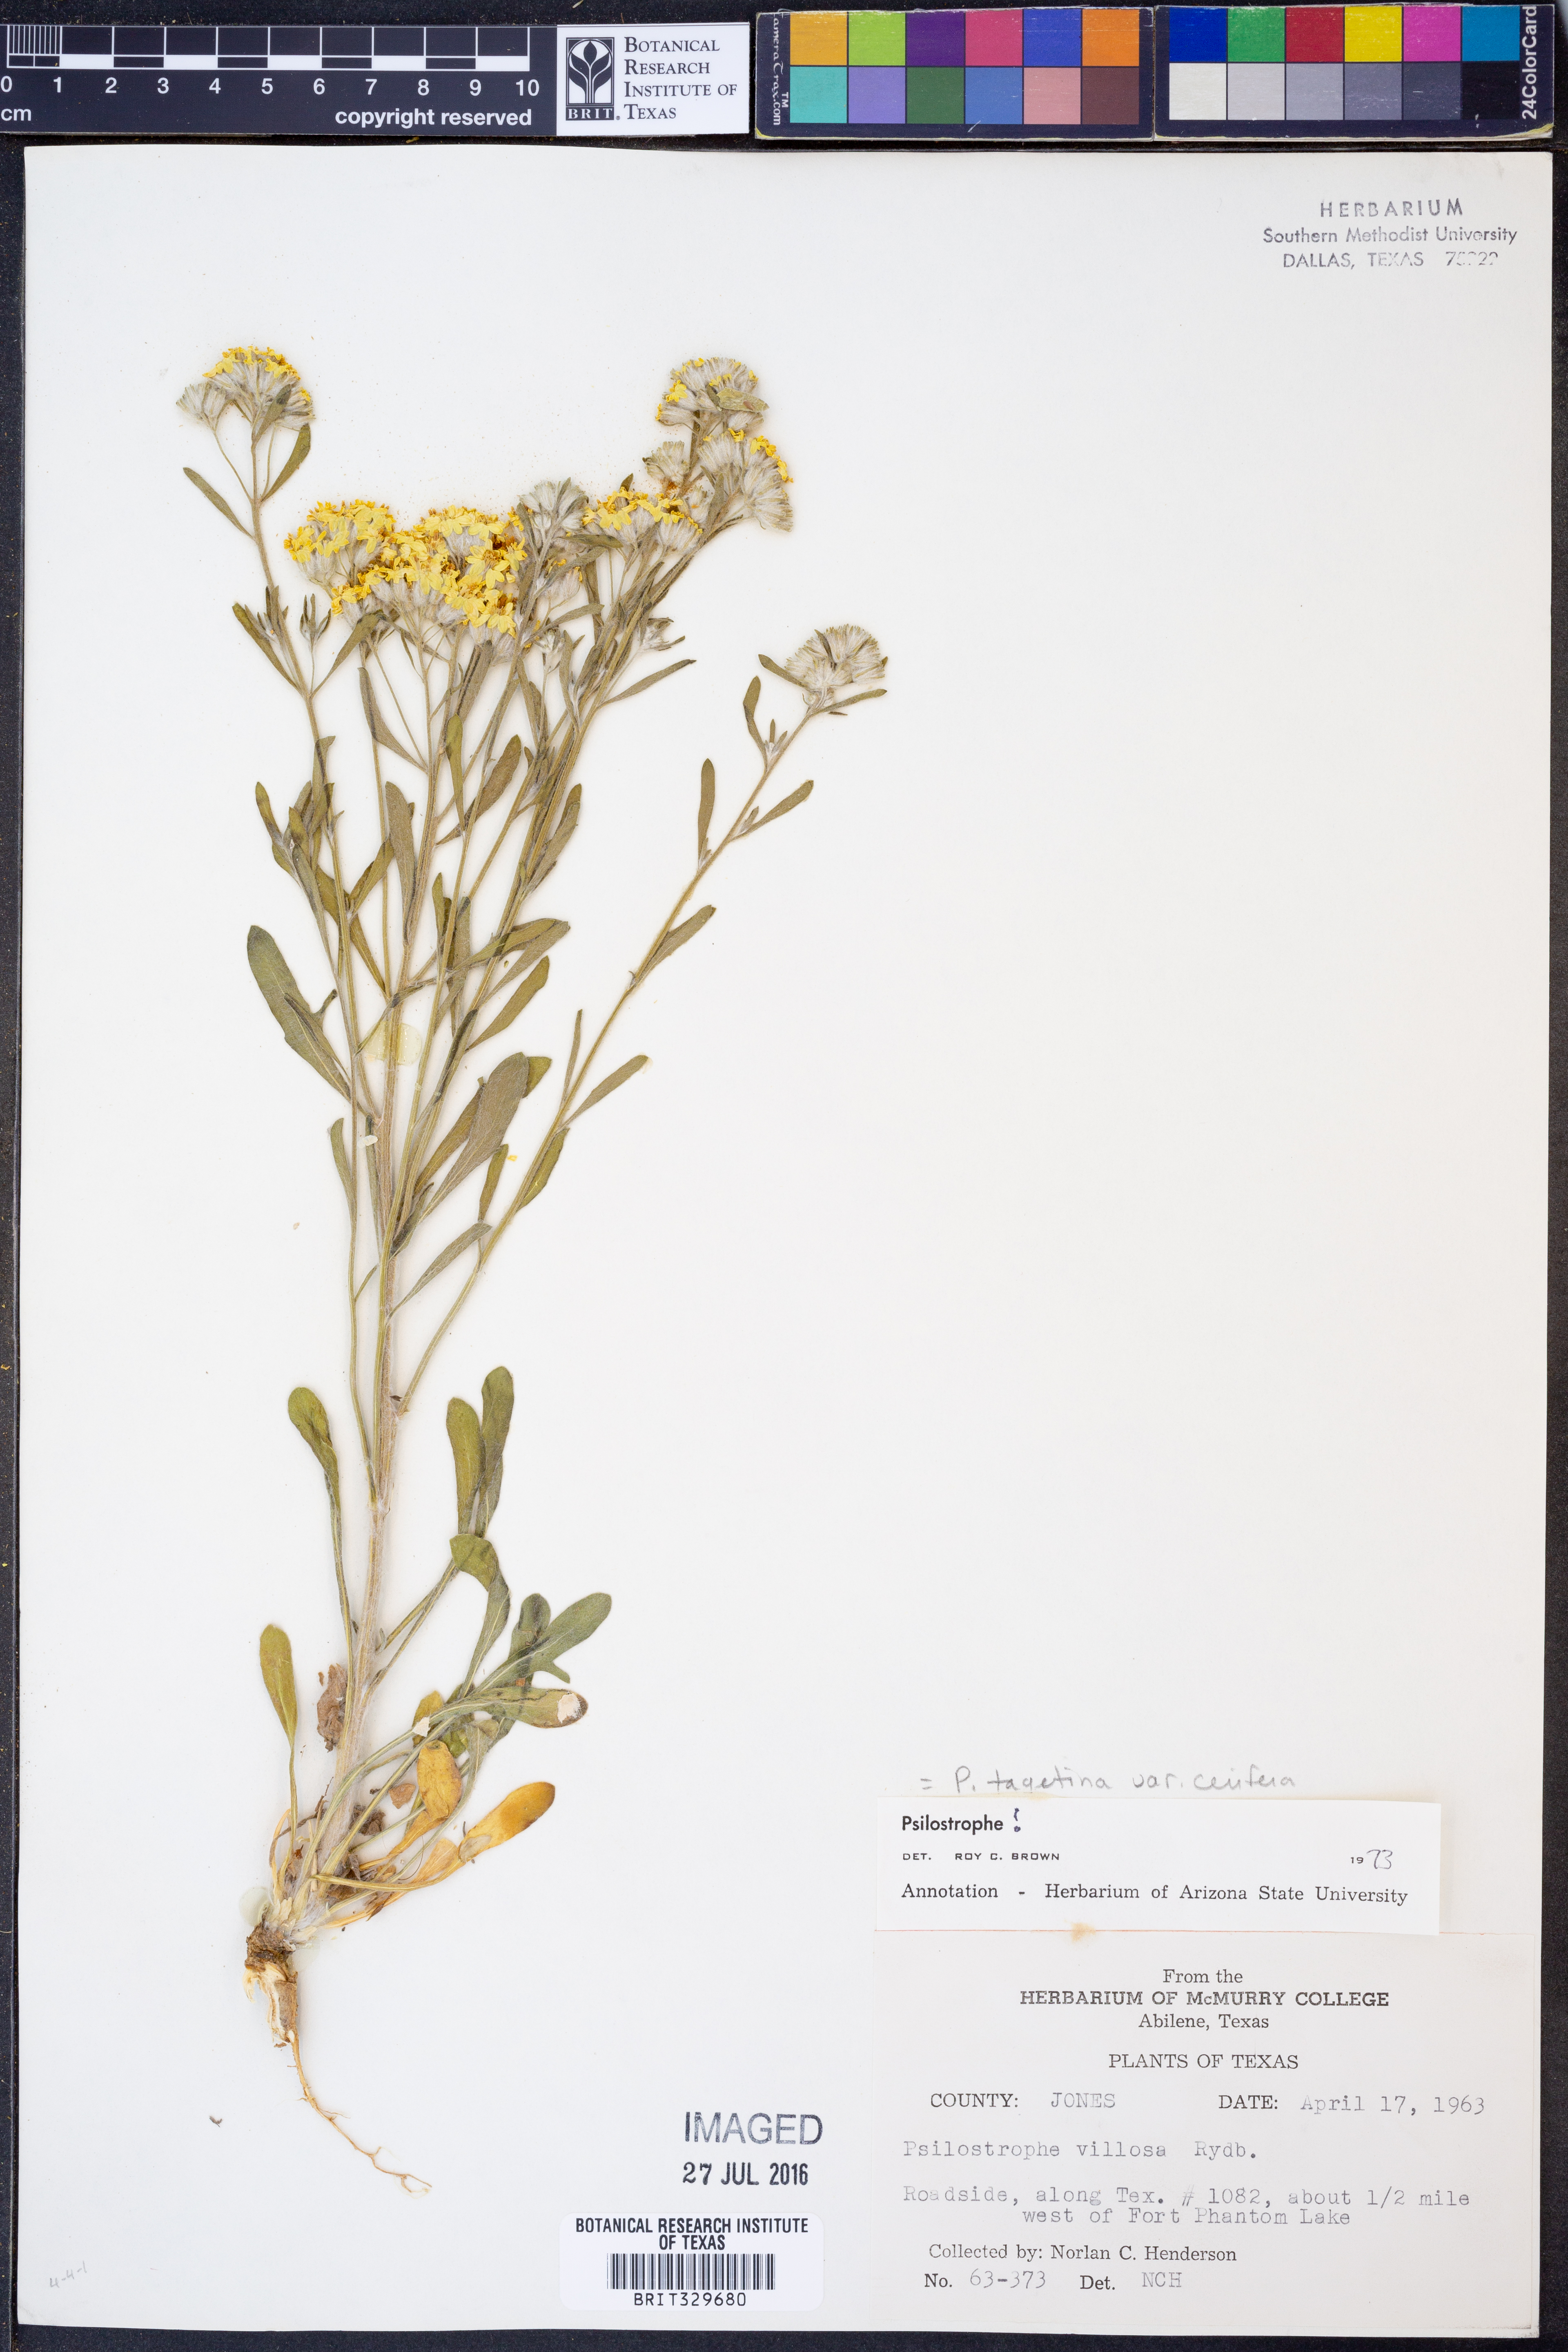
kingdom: Plantae
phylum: Tracheophyta
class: Magnoliopsida
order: Asterales
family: Asteraceae
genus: Psilostrophe
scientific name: Psilostrophe villosa
